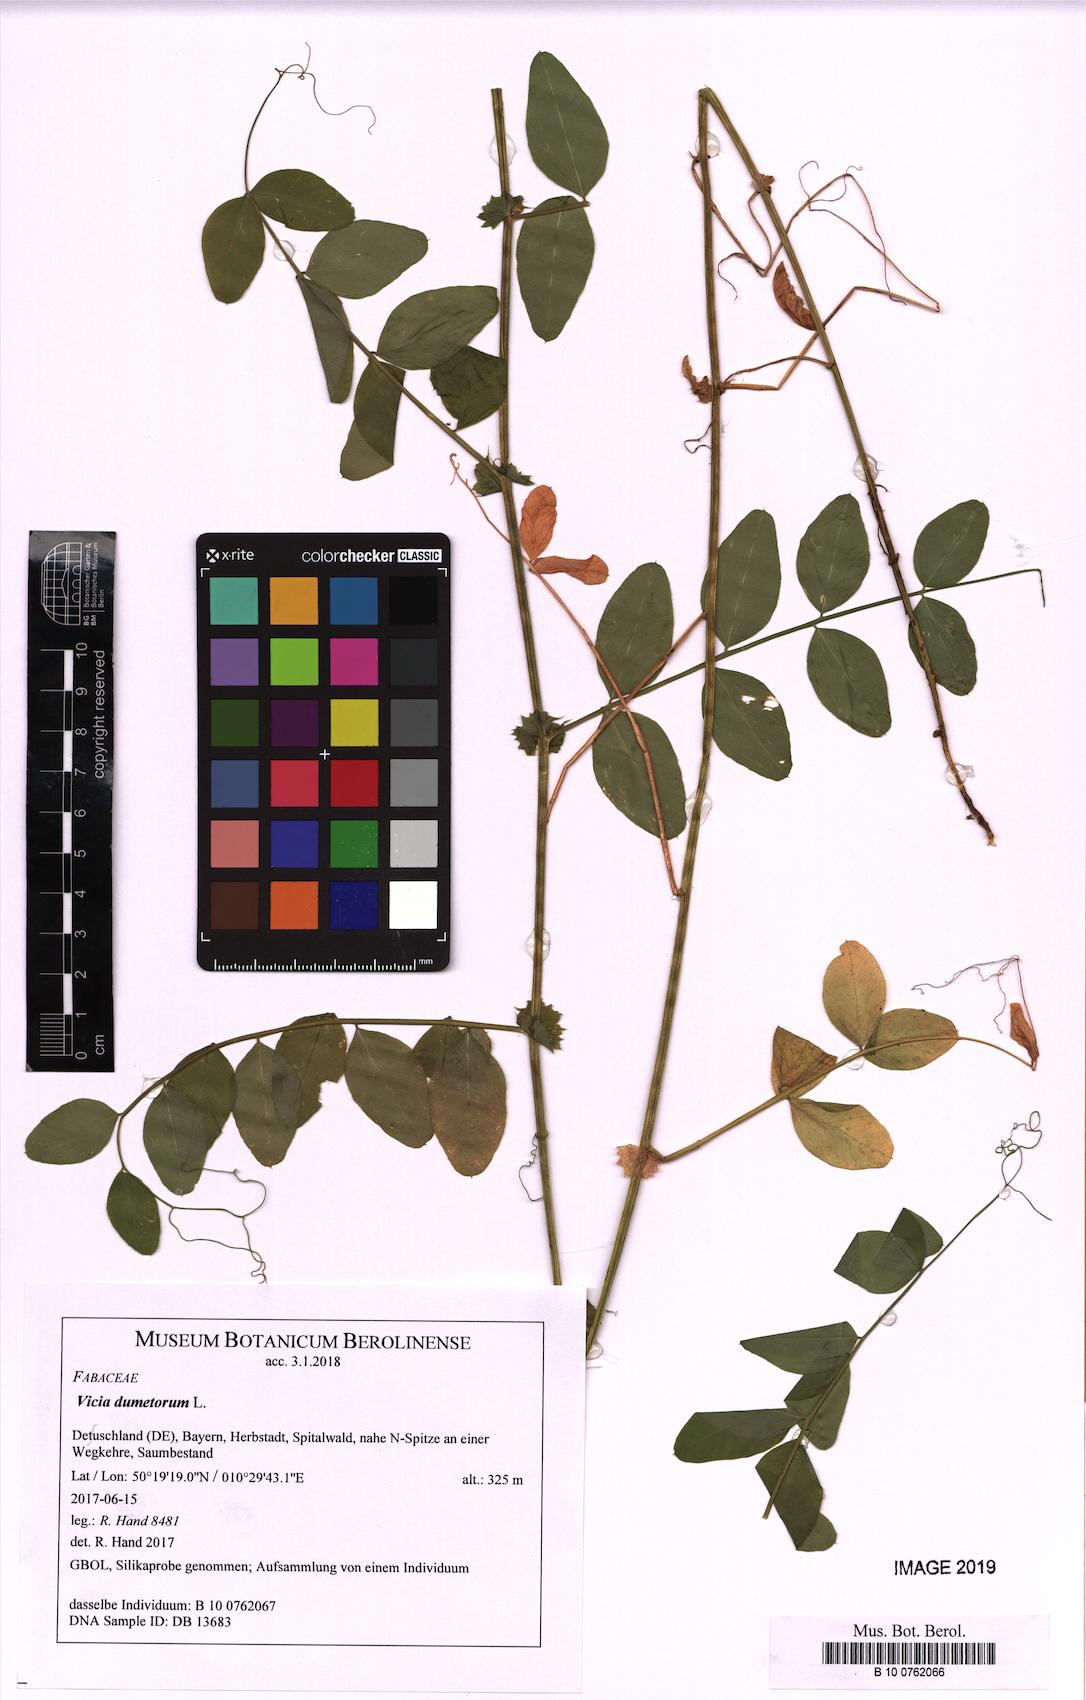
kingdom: Plantae
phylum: Tracheophyta
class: Magnoliopsida
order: Fabales
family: Fabaceae
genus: Vicia
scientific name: Vicia dumetorum
